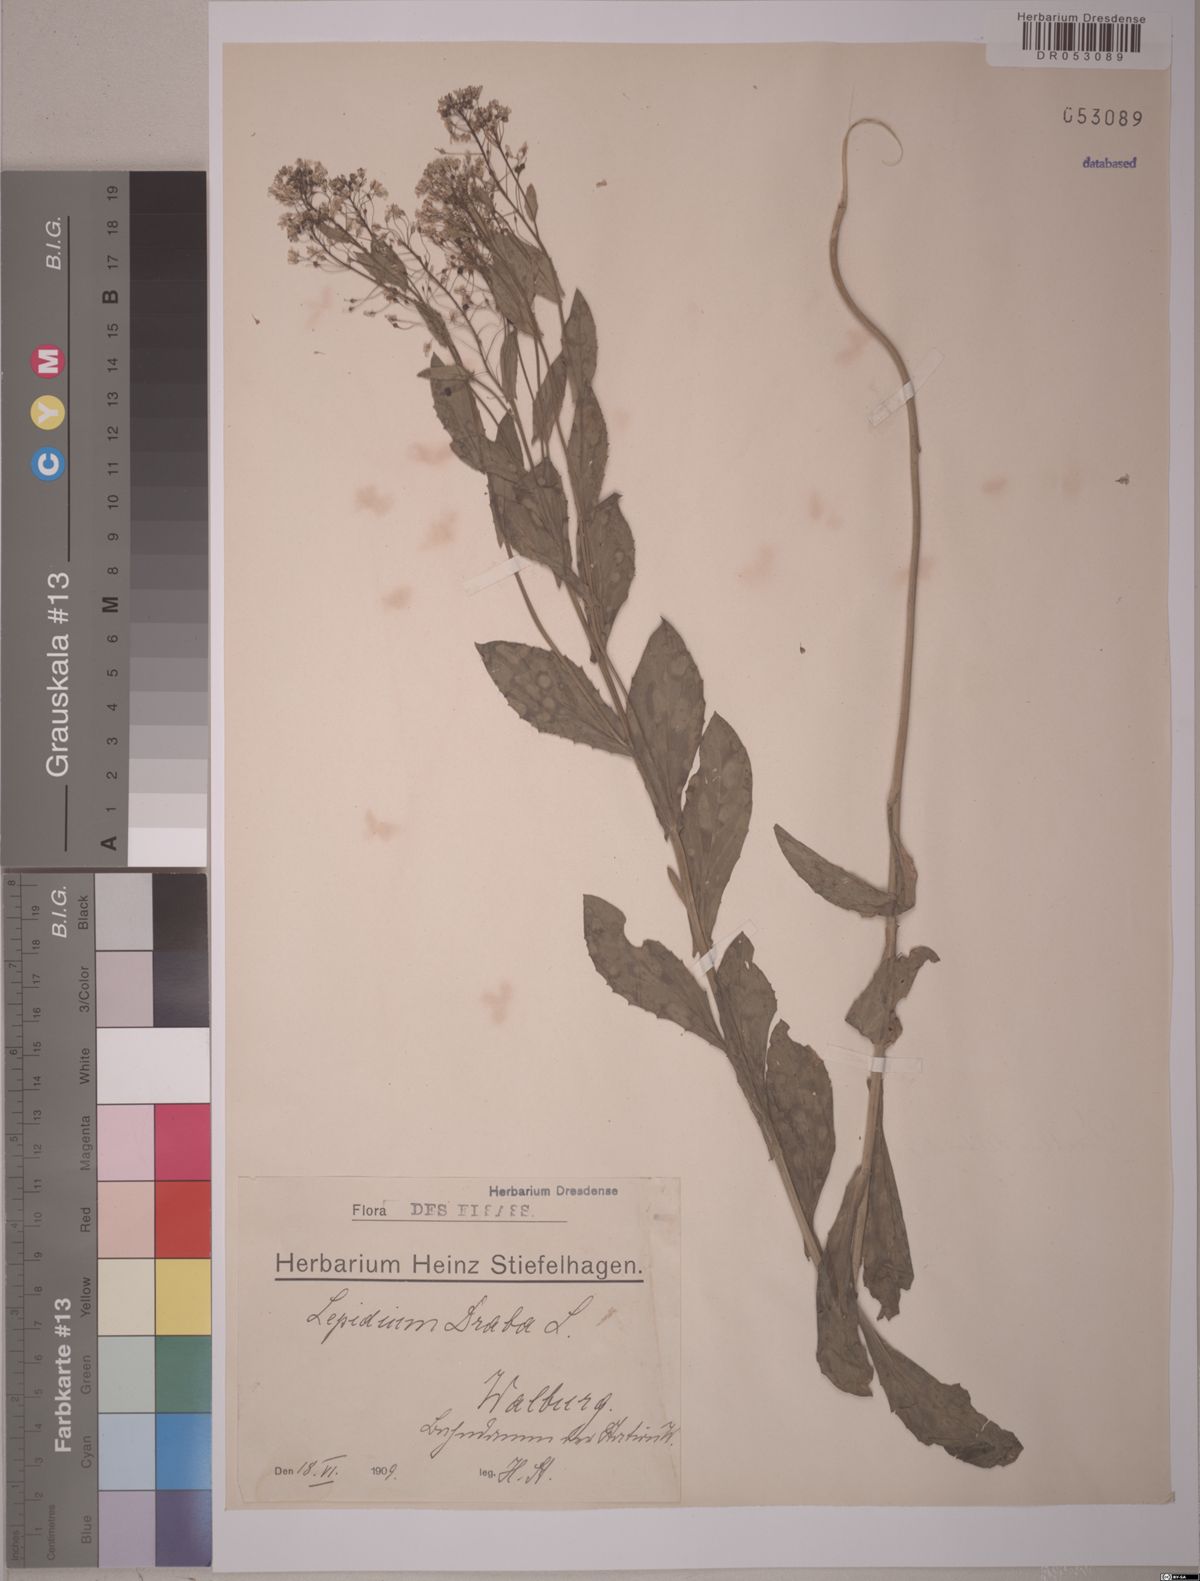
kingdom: Plantae
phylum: Tracheophyta
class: Magnoliopsida
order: Brassicales
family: Brassicaceae
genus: Lepidium
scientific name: Lepidium draba
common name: Hoary cress
